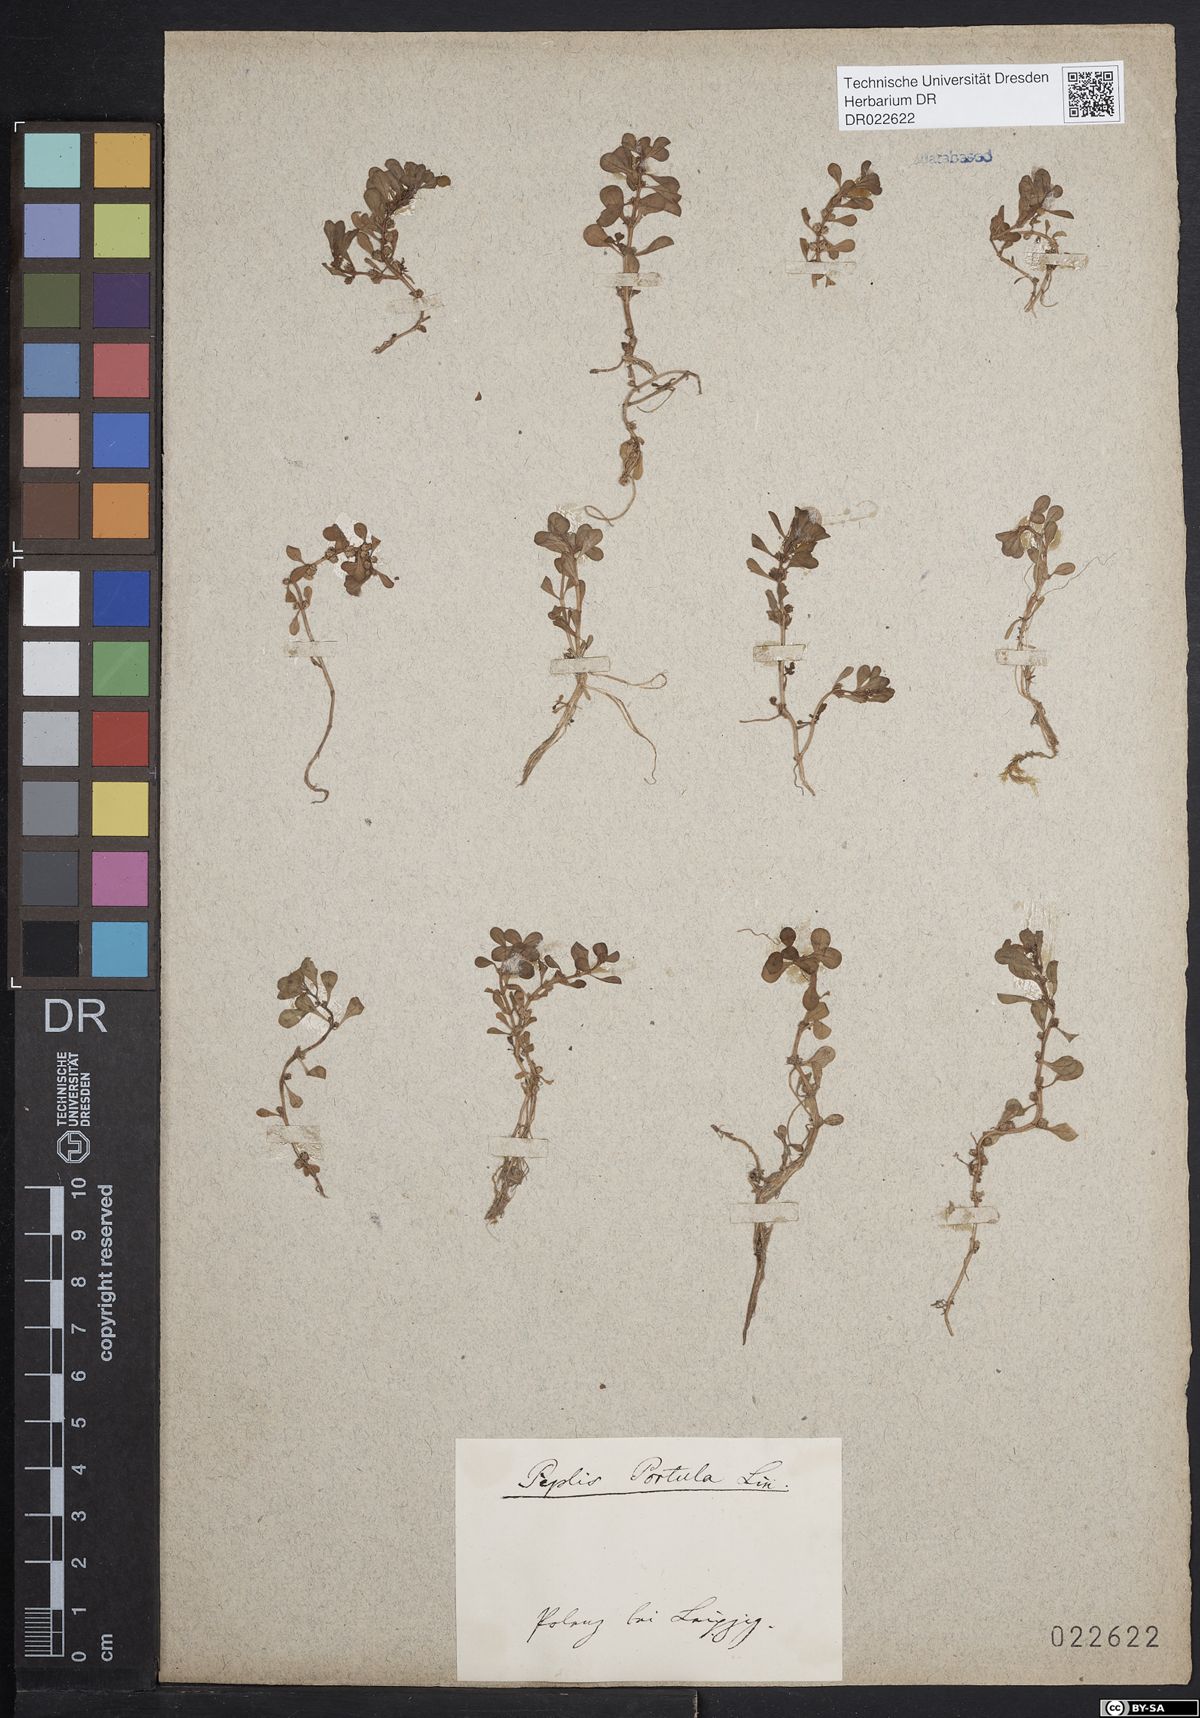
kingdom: Plantae
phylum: Tracheophyta
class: Magnoliopsida
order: Myrtales
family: Lythraceae
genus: Lythrum
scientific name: Lythrum portula
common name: Water purslane
